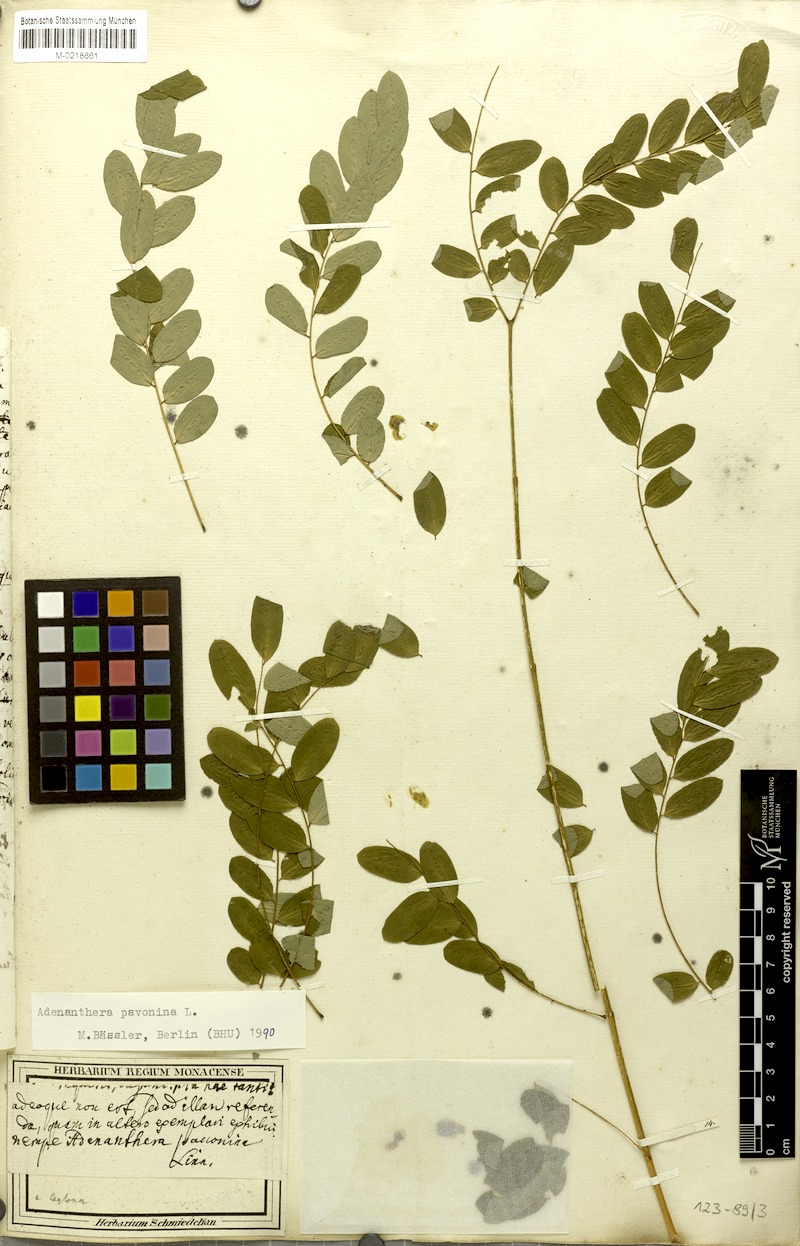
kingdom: Plantae
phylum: Tracheophyta
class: Magnoliopsida
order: Fabales
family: Fabaceae
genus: Adenanthera
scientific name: Adenanthera pavonina
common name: Red beadtree
